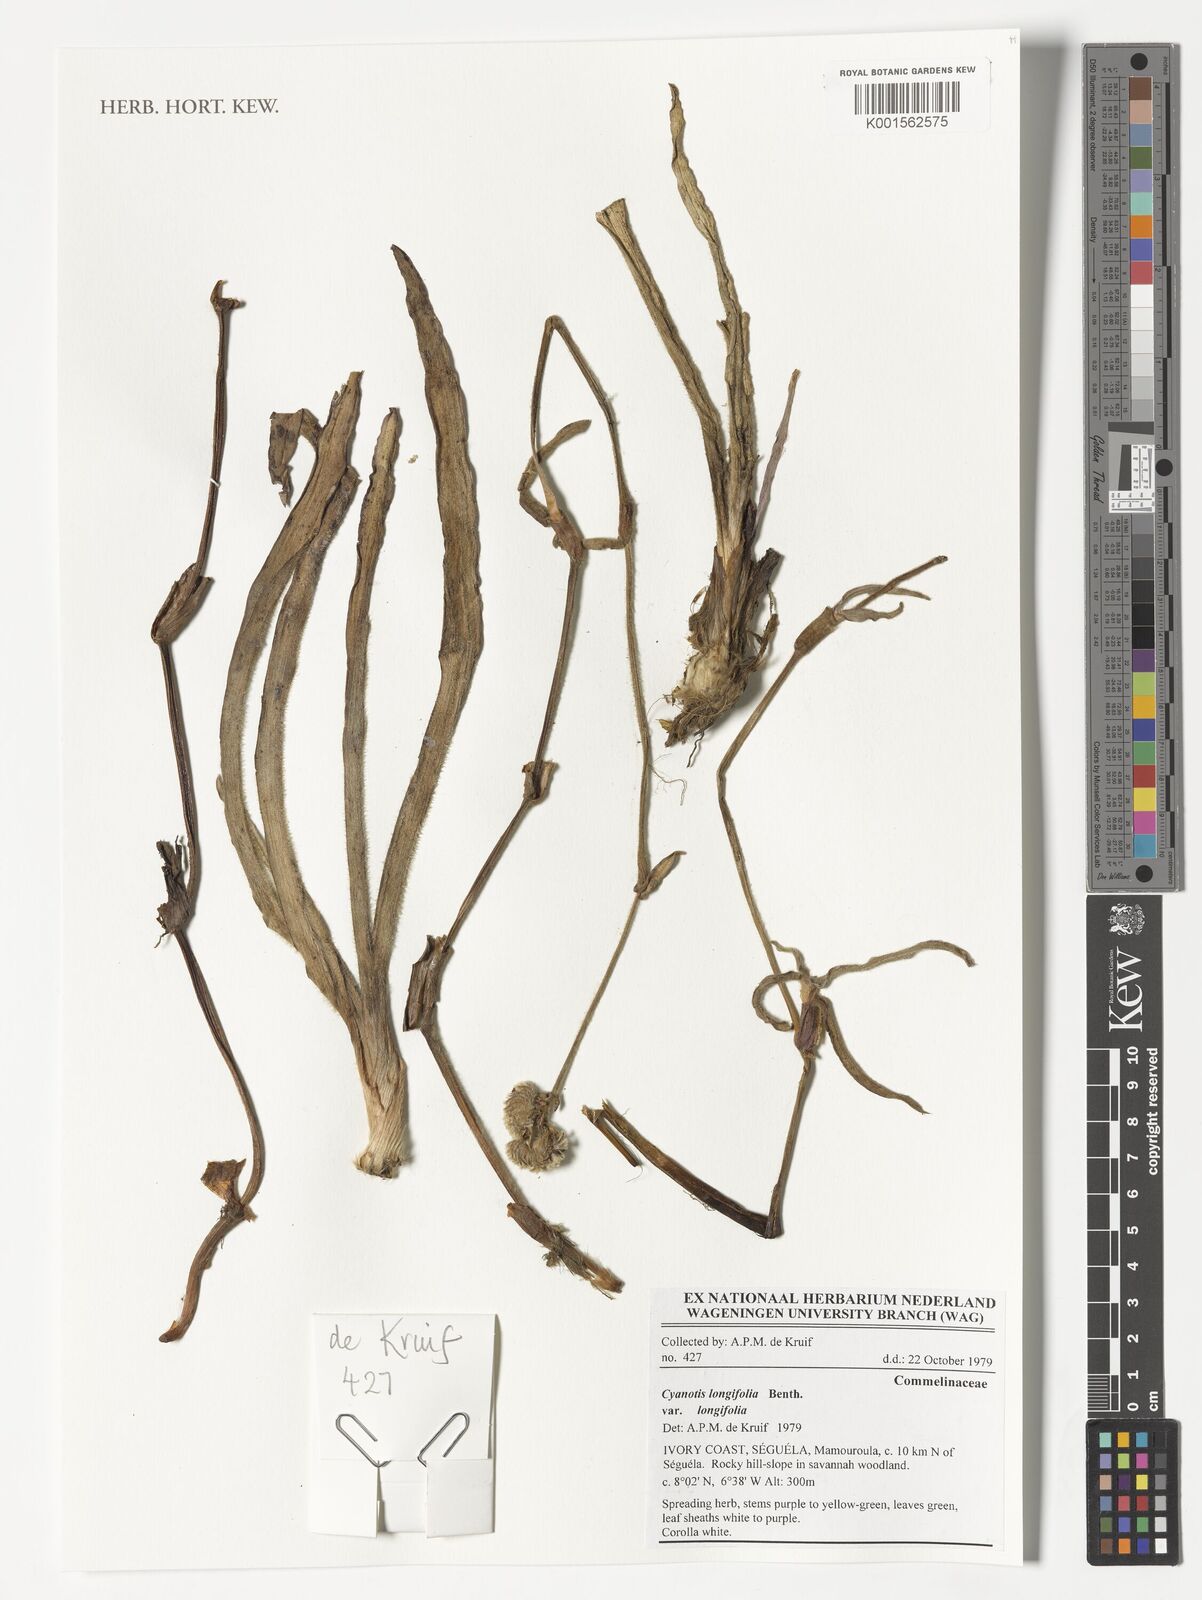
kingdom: Plantae
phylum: Tracheophyta
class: Liliopsida
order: Commelinales
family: Commelinaceae
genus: Cyanotis
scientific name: Cyanotis longifolia
